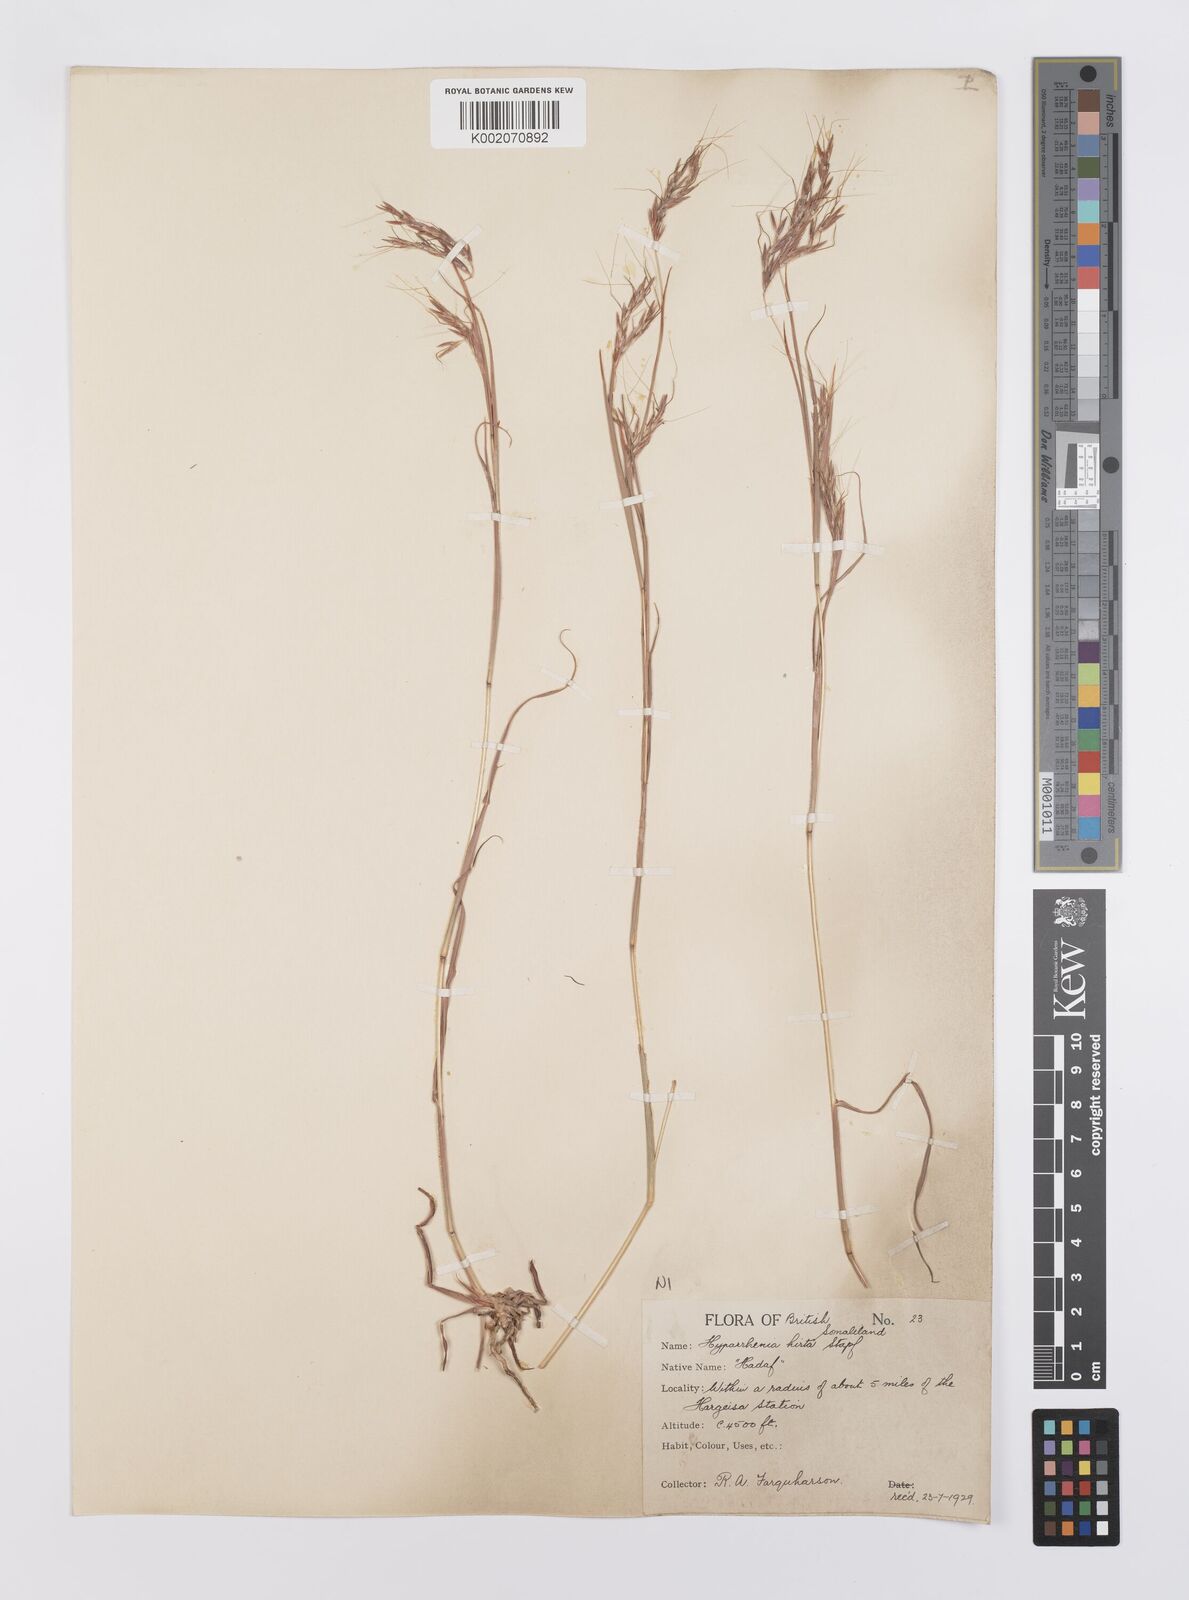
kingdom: Plantae
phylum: Tracheophyta
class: Liliopsida
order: Poales
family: Poaceae
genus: Hyparrhenia
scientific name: Hyparrhenia hirta
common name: Thatching grass
